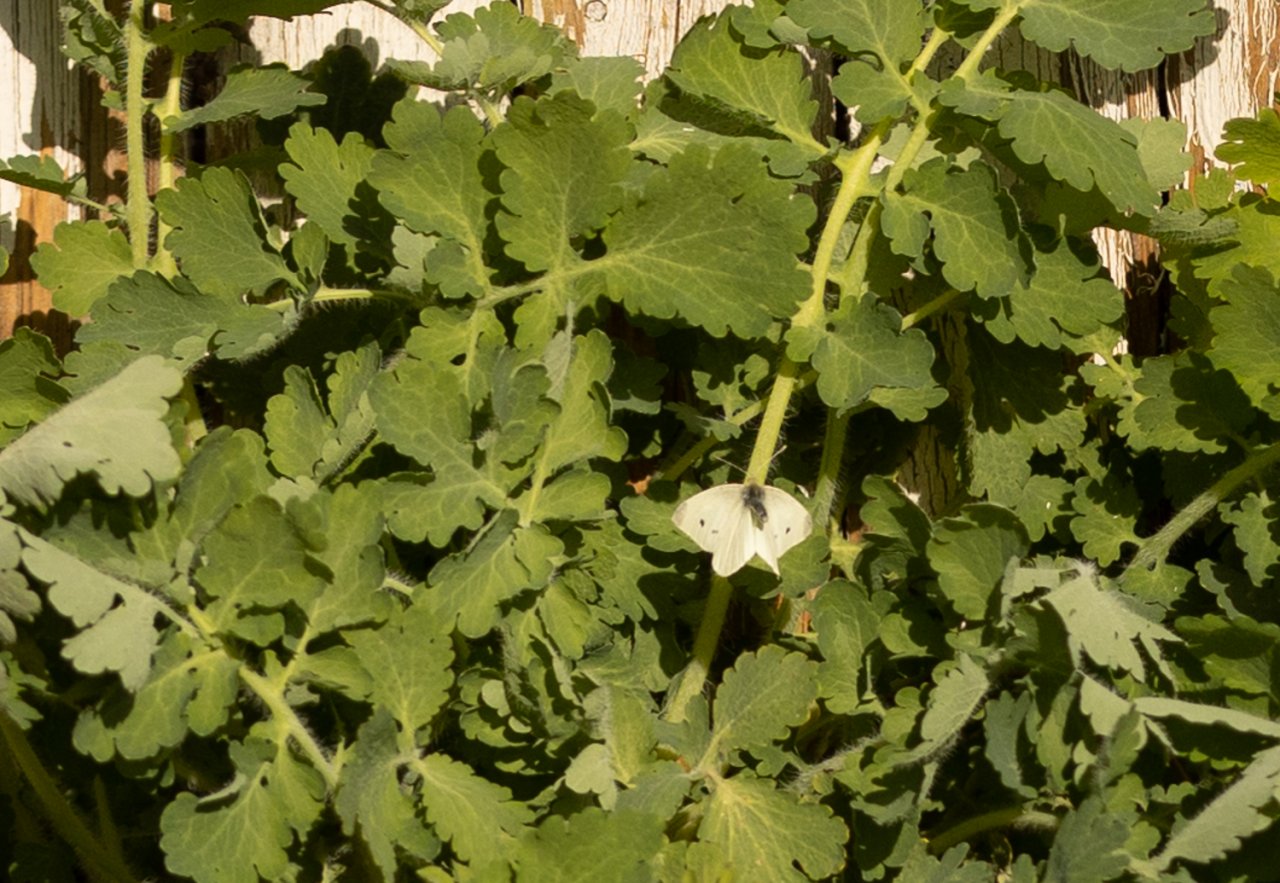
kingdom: Animalia
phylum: Arthropoda
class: Insecta
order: Lepidoptera
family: Pieridae
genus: Pieris
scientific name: Pieris rapae
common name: Cabbage White
